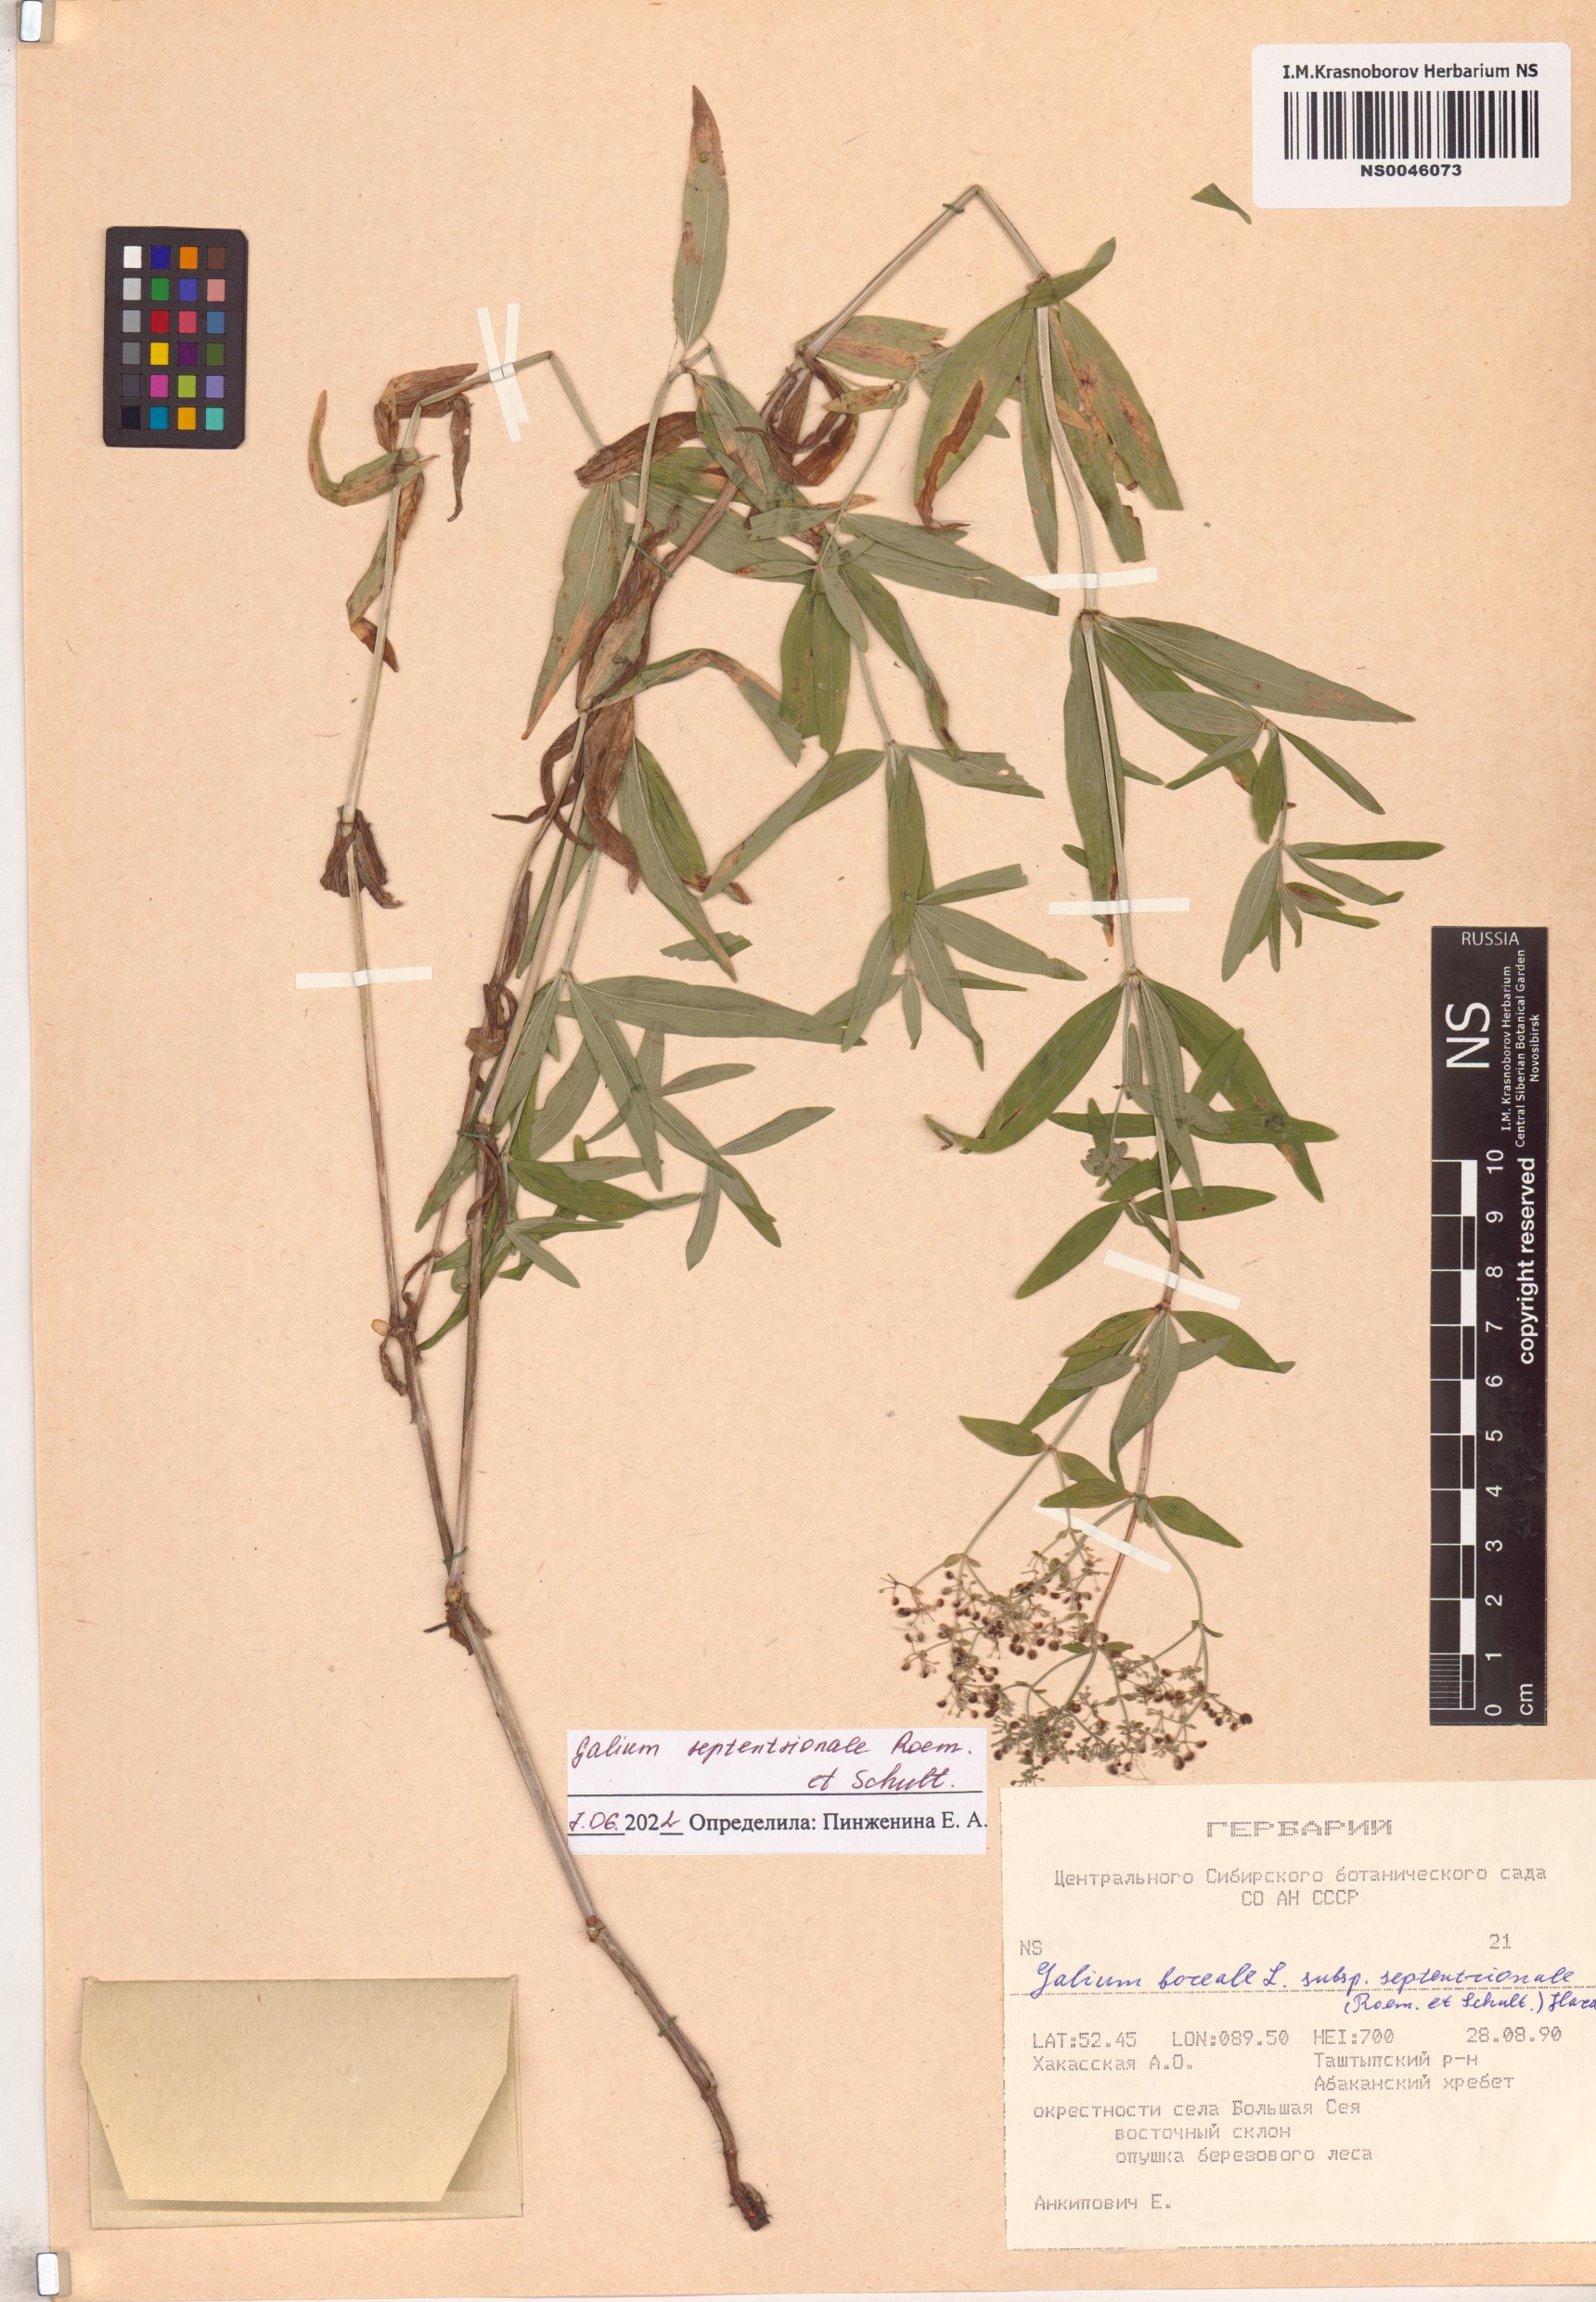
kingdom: Plantae
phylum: Tracheophyta
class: Magnoliopsida
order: Gentianales
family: Rubiaceae
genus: Galium
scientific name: Galium boreale
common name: Northern bedstraw
